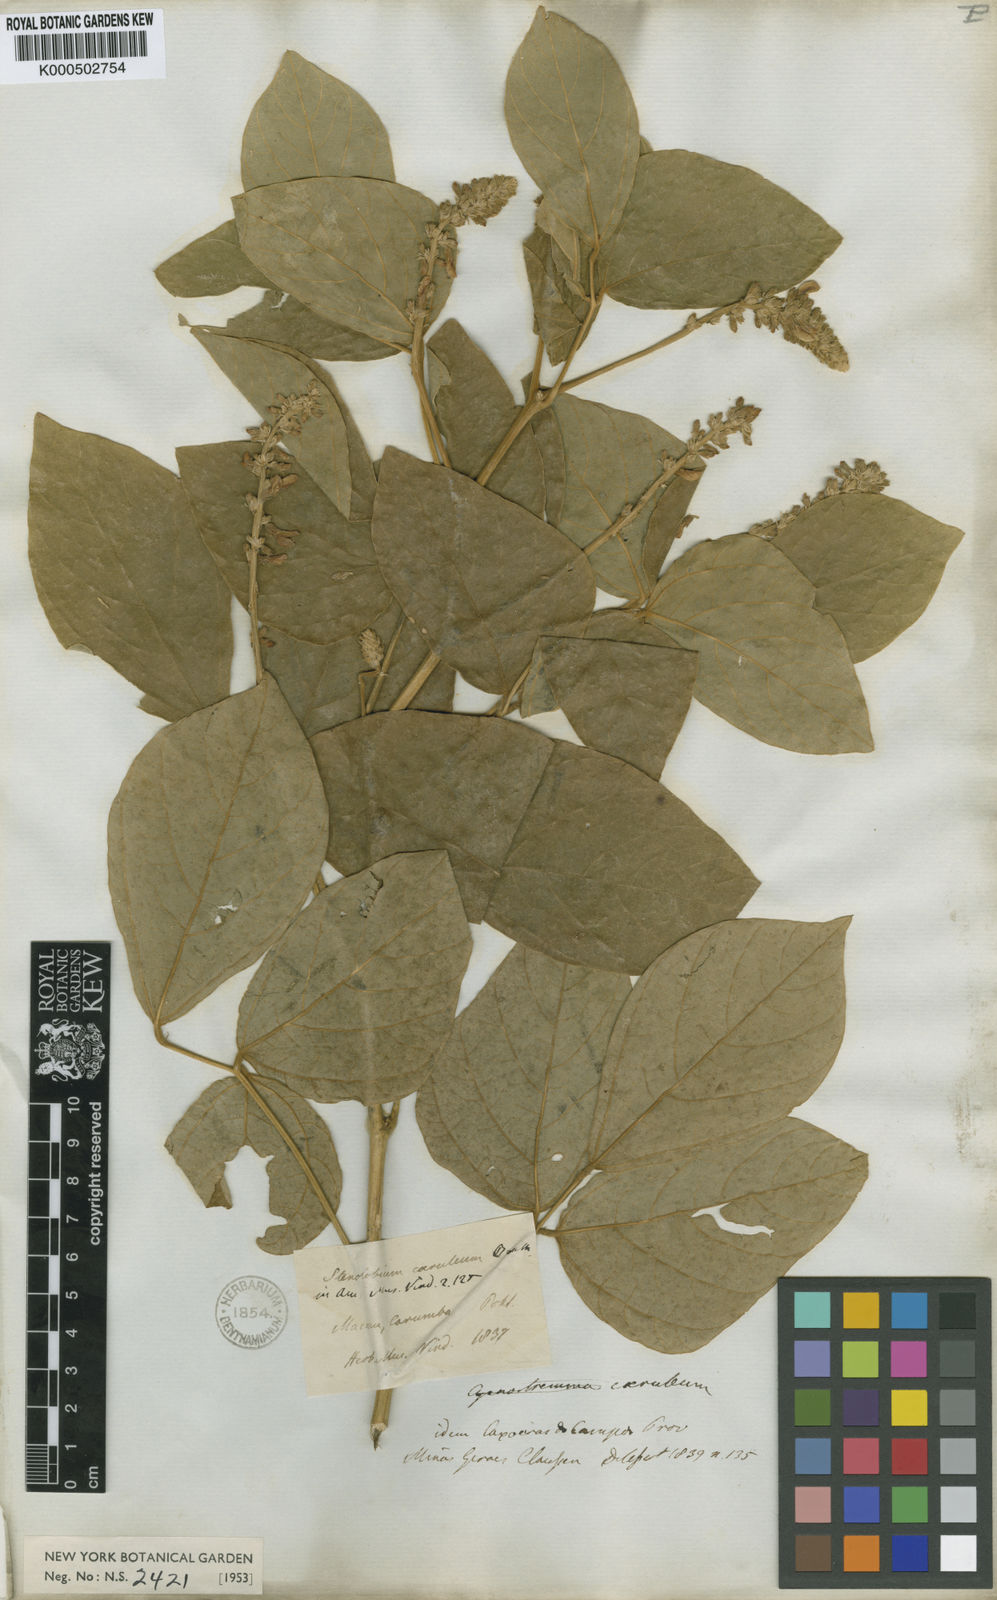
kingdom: Plantae
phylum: Tracheophyta
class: Magnoliopsida
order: Fabales
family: Fabaceae
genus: Calopogonium
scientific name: Calopogonium
